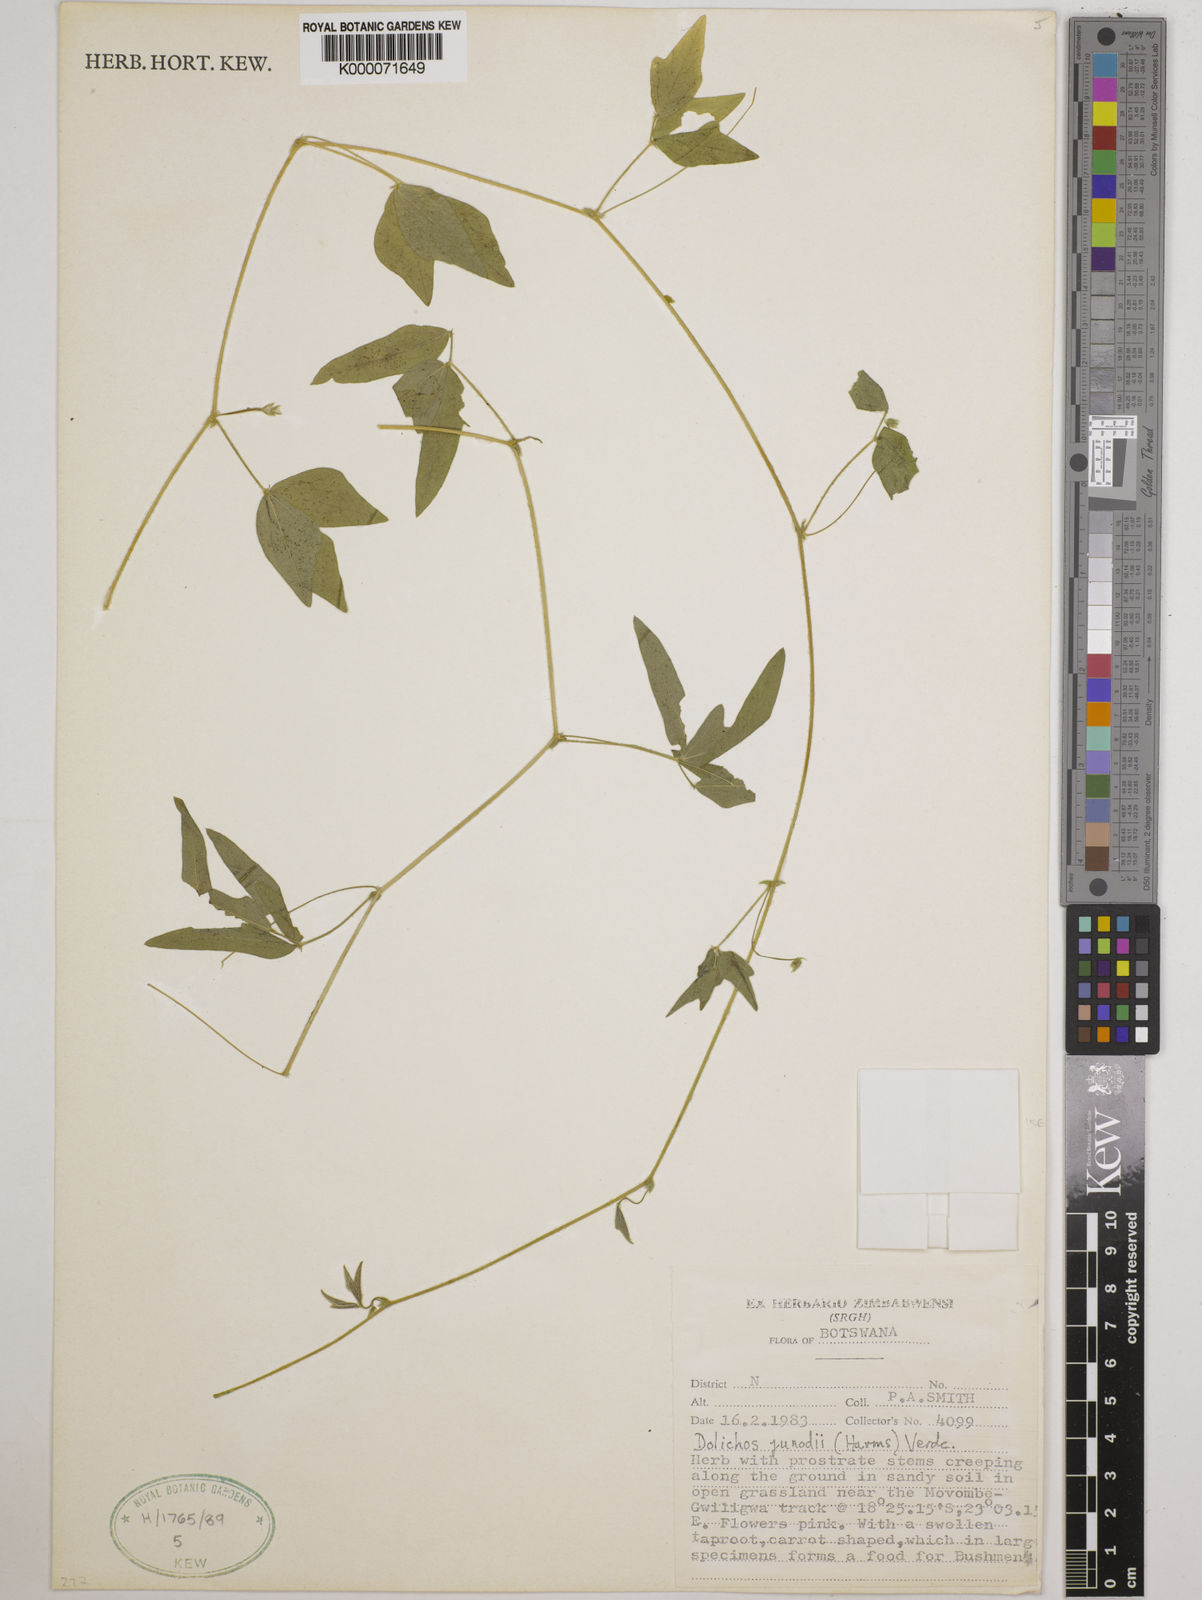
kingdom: Plantae
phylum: Tracheophyta
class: Magnoliopsida
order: Fabales
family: Fabaceae
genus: Dolichos
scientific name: Dolichos junodii
